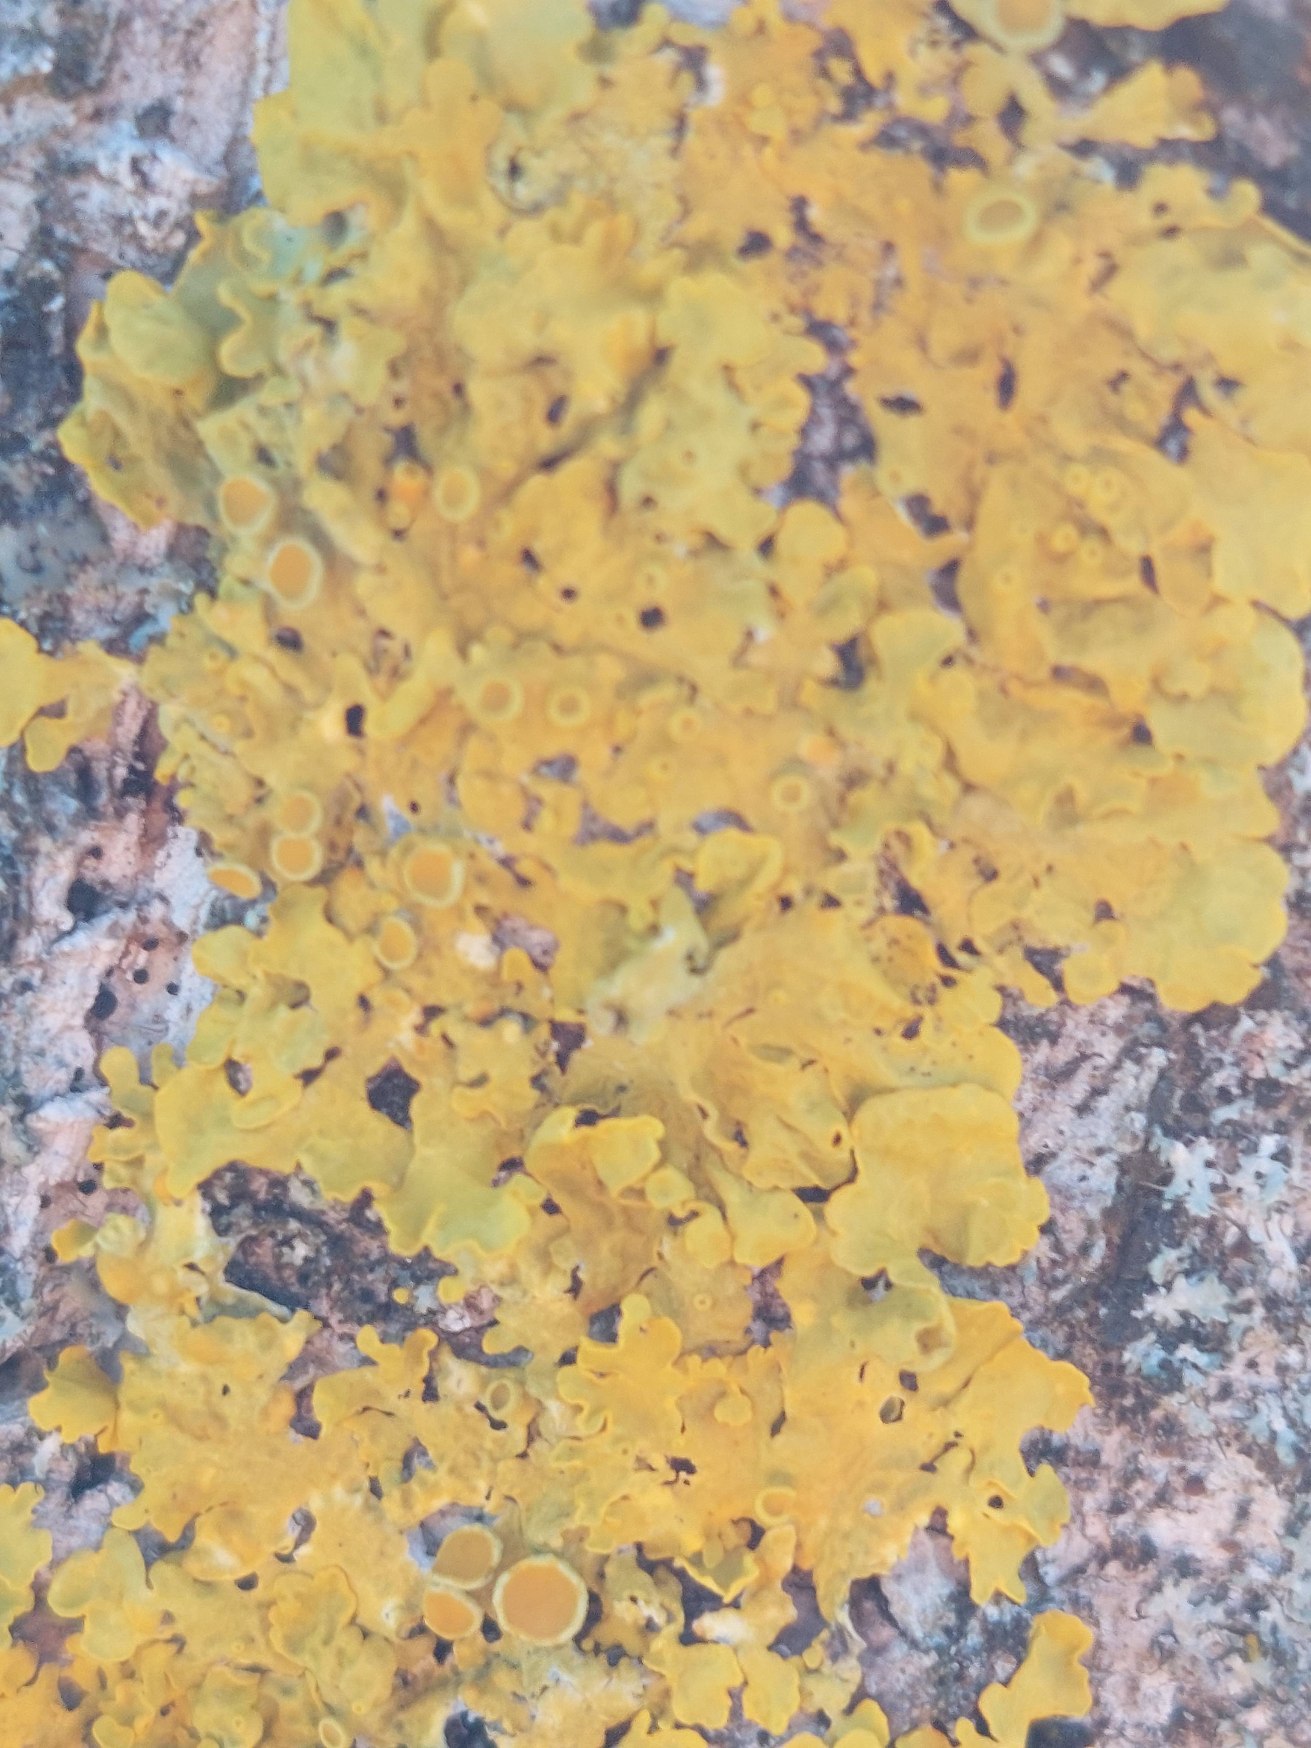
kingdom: Fungi
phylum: Ascomycota
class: Lecanoromycetes
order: Teloschistales
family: Teloschistaceae
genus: Xanthoria
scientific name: Xanthoria parietina
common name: Almindelig væggelav
